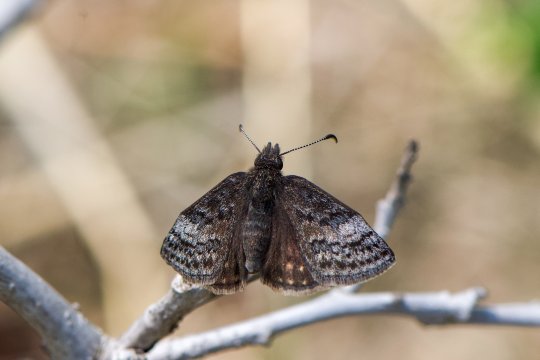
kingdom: Animalia
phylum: Arthropoda
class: Insecta
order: Lepidoptera
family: Hesperiidae
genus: Erynnis
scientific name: Erynnis icelus
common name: Dreamy Duskywing
